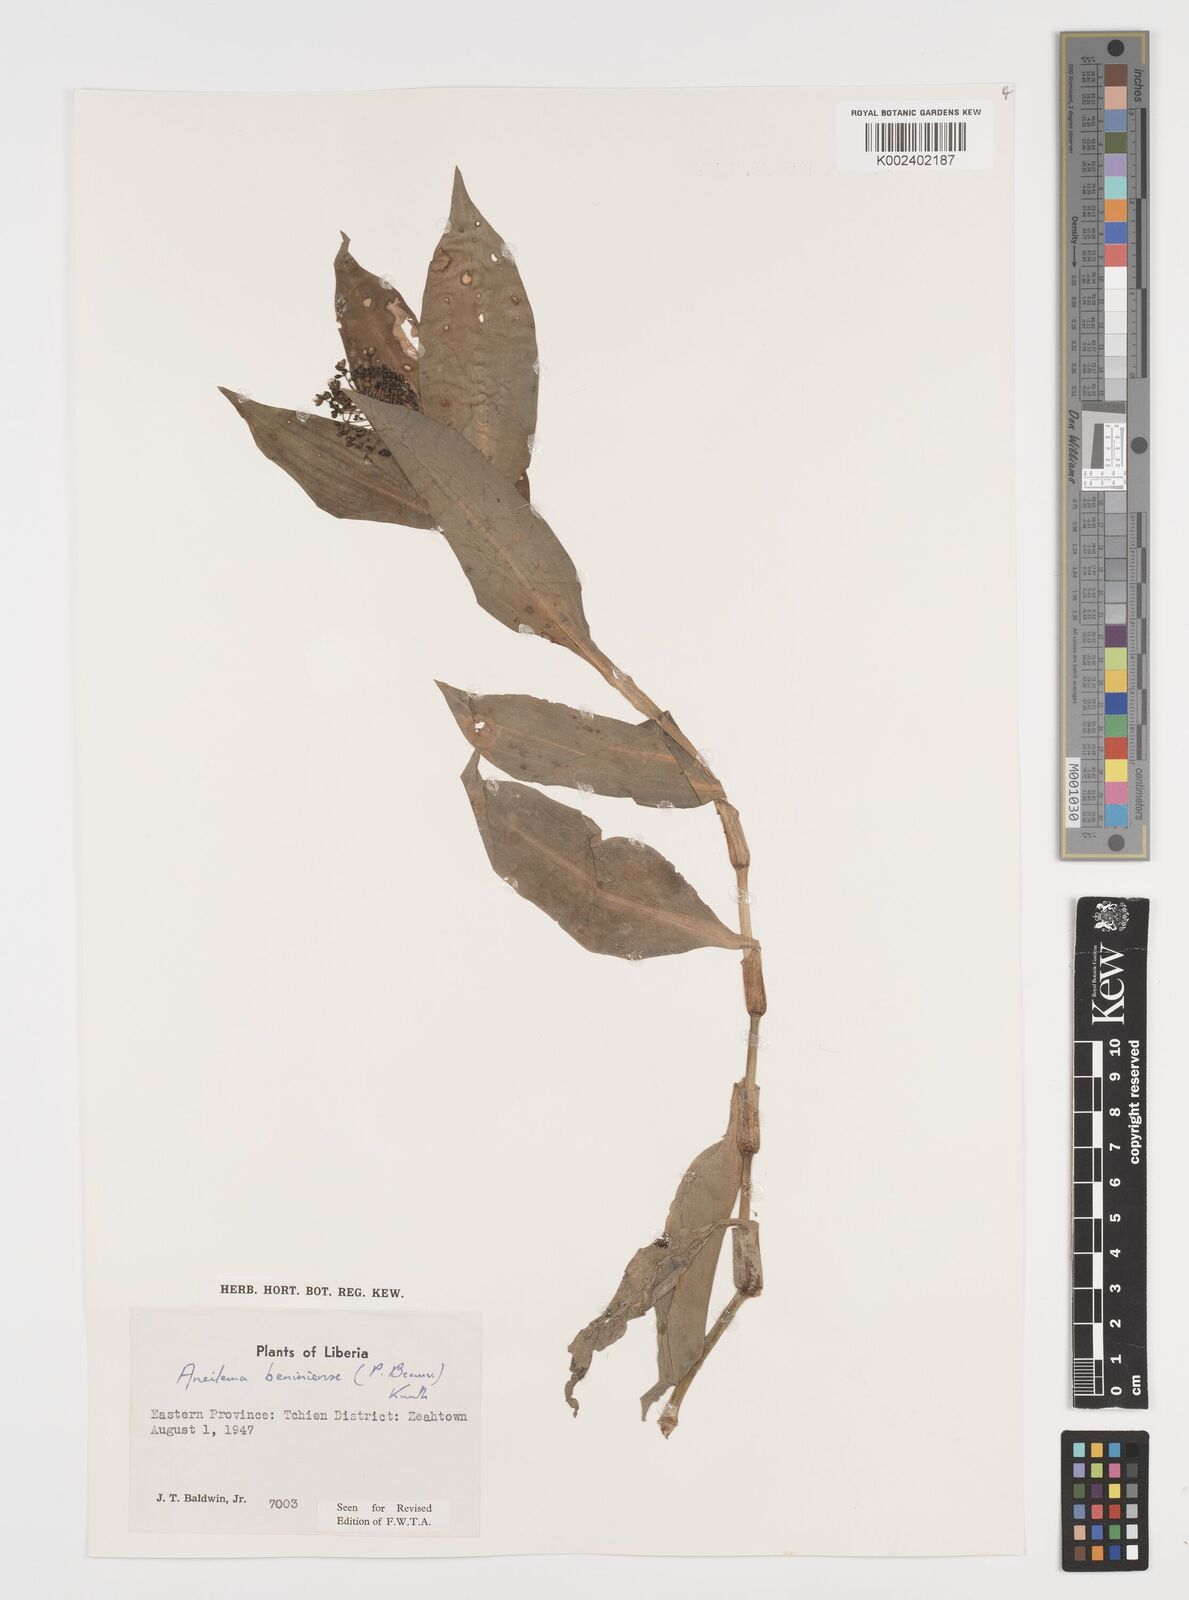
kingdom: Plantae
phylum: Tracheophyta
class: Liliopsida
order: Commelinales
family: Commelinaceae
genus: Aneilema
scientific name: Aneilema beniniense
